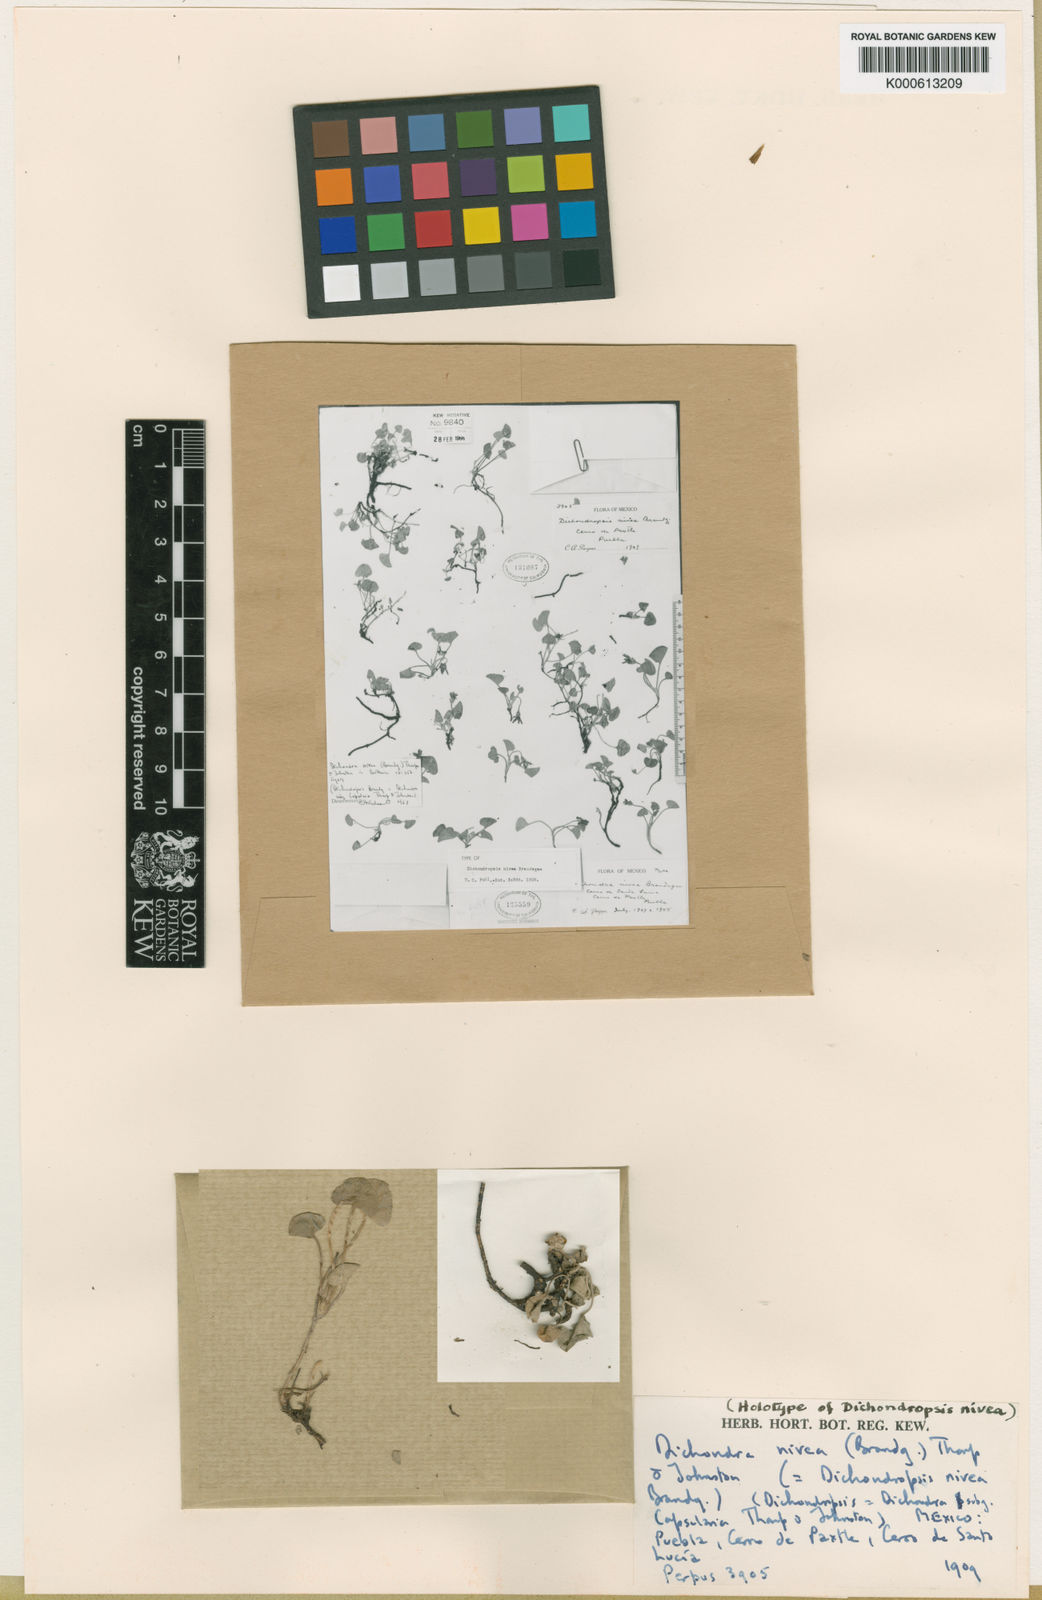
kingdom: Plantae
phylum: Tracheophyta
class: Magnoliopsida
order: Solanales
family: Convolvulaceae
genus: Dichondra
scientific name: Dichondra nivea
